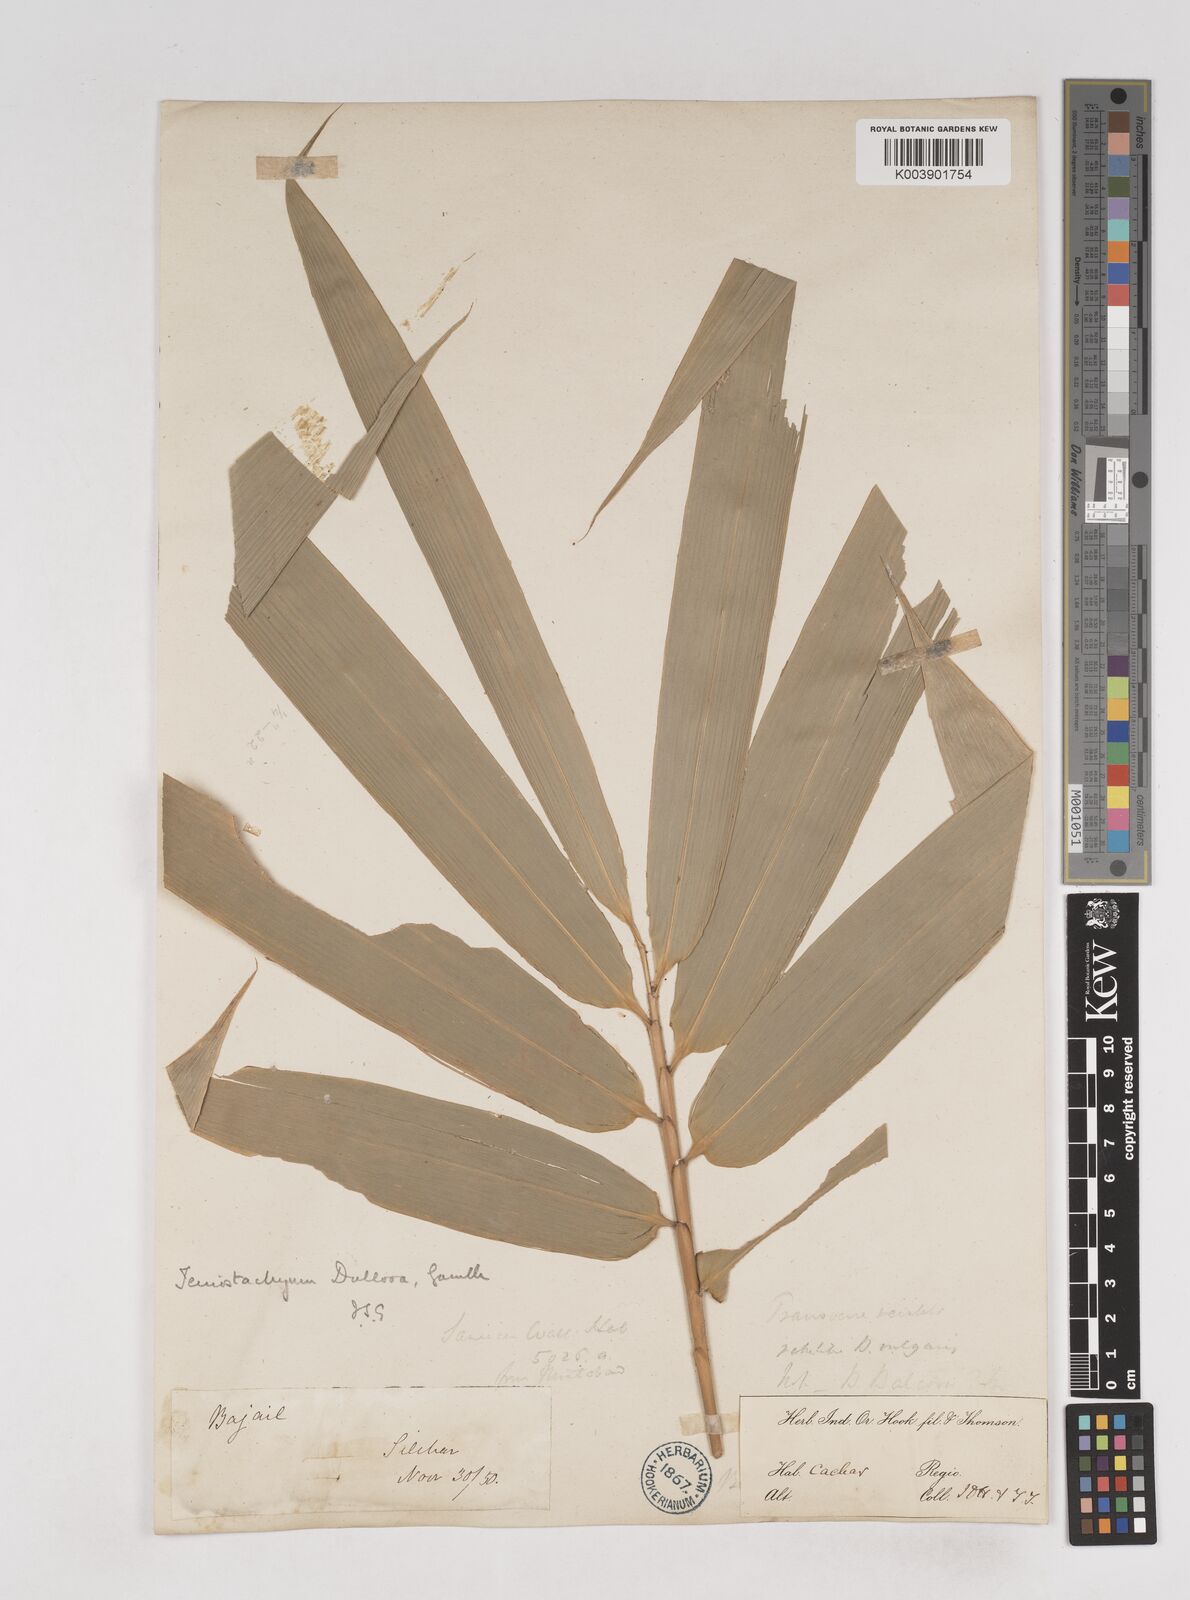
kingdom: Plantae
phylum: Tracheophyta
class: Liliopsida
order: Poales
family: Poaceae
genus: Schizostachyum
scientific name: Schizostachyum dullooa
